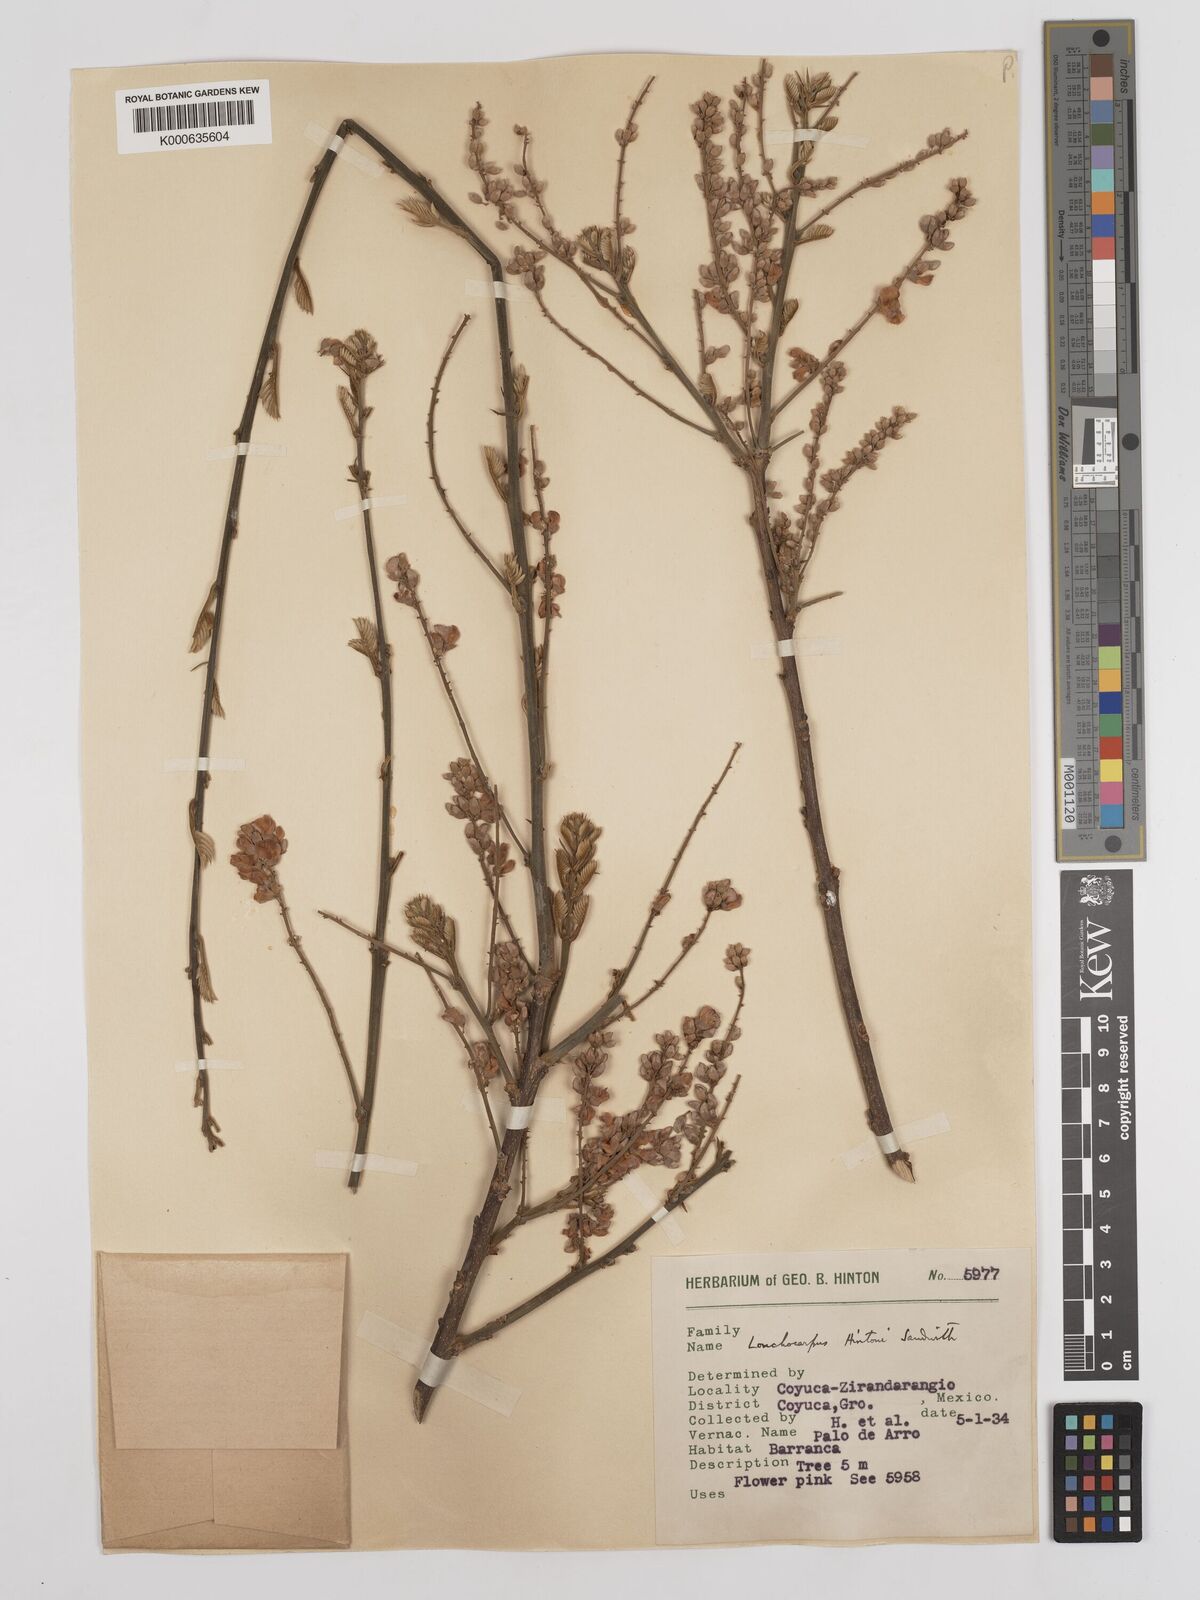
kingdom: Plantae
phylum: Tracheophyta
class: Magnoliopsida
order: Fabales
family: Fabaceae
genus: Lonchocarpus
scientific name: Lonchocarpus hintonii
